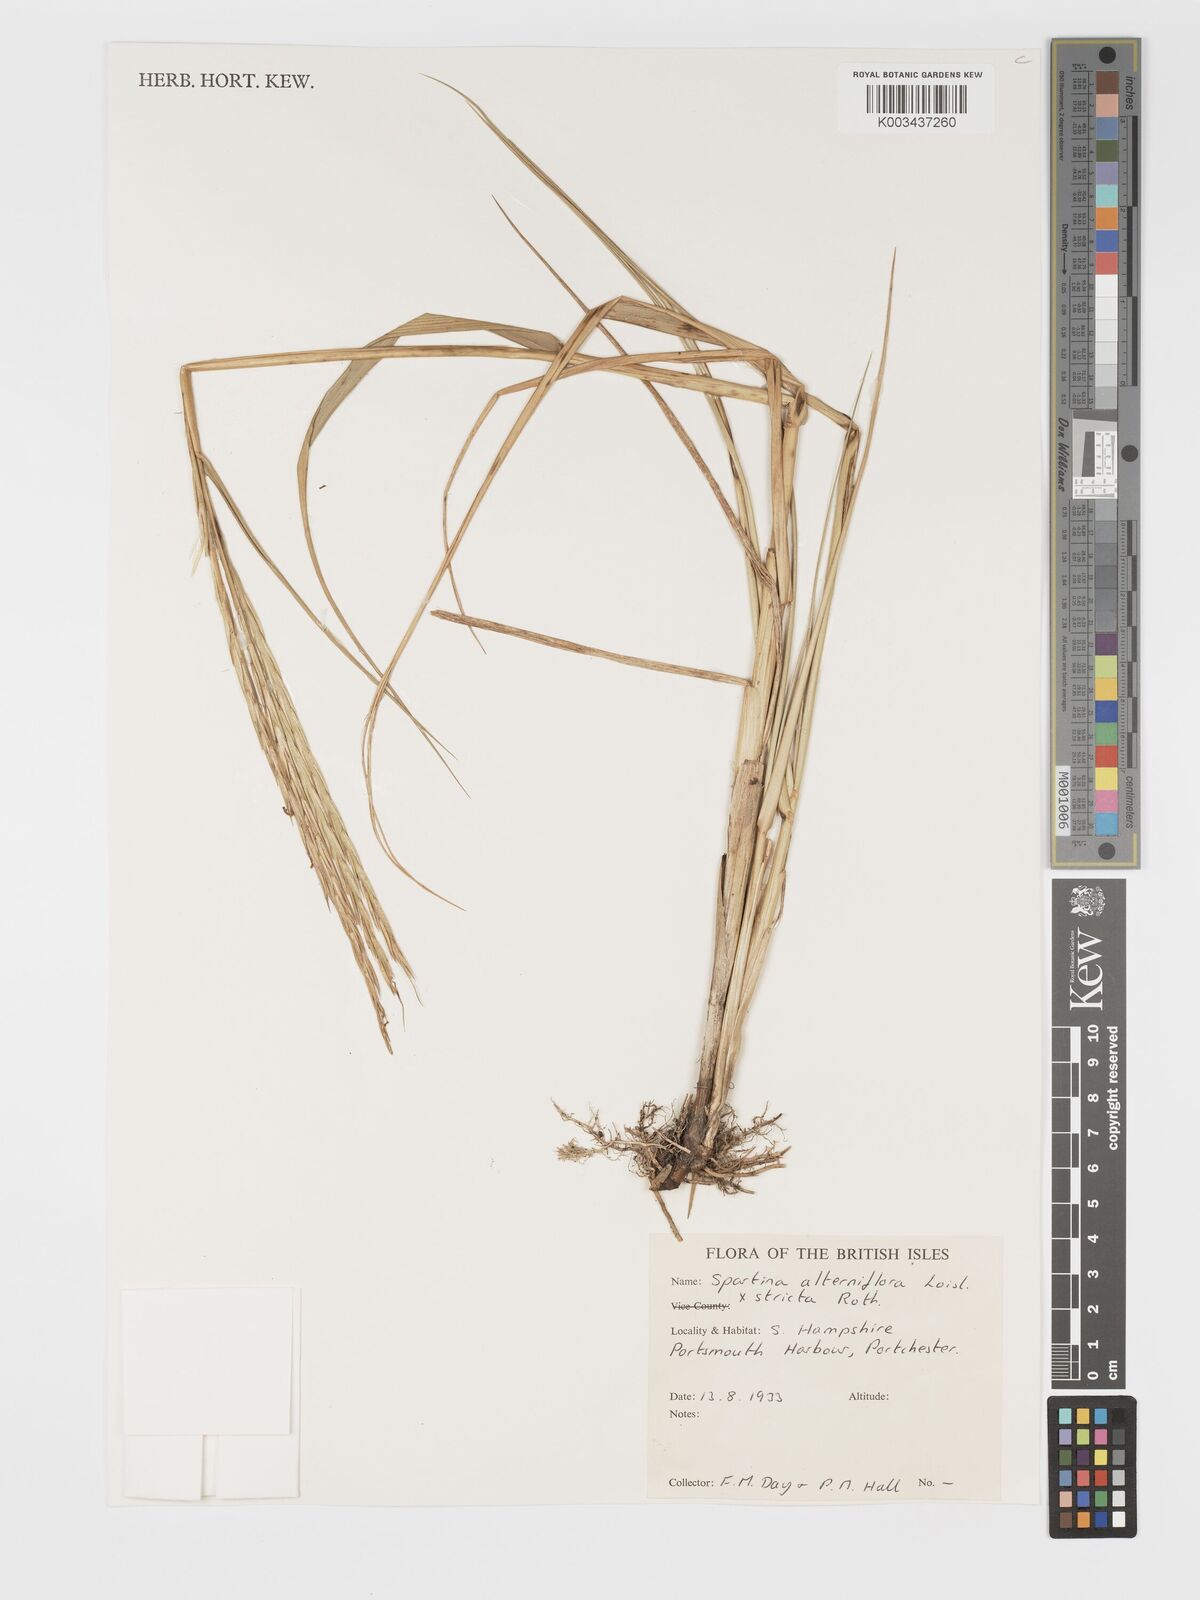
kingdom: Plantae
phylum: Tracheophyta
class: Liliopsida
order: Poales
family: Poaceae
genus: Sporobolus
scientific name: Sporobolus townsendii
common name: Townsend's cordgrass
